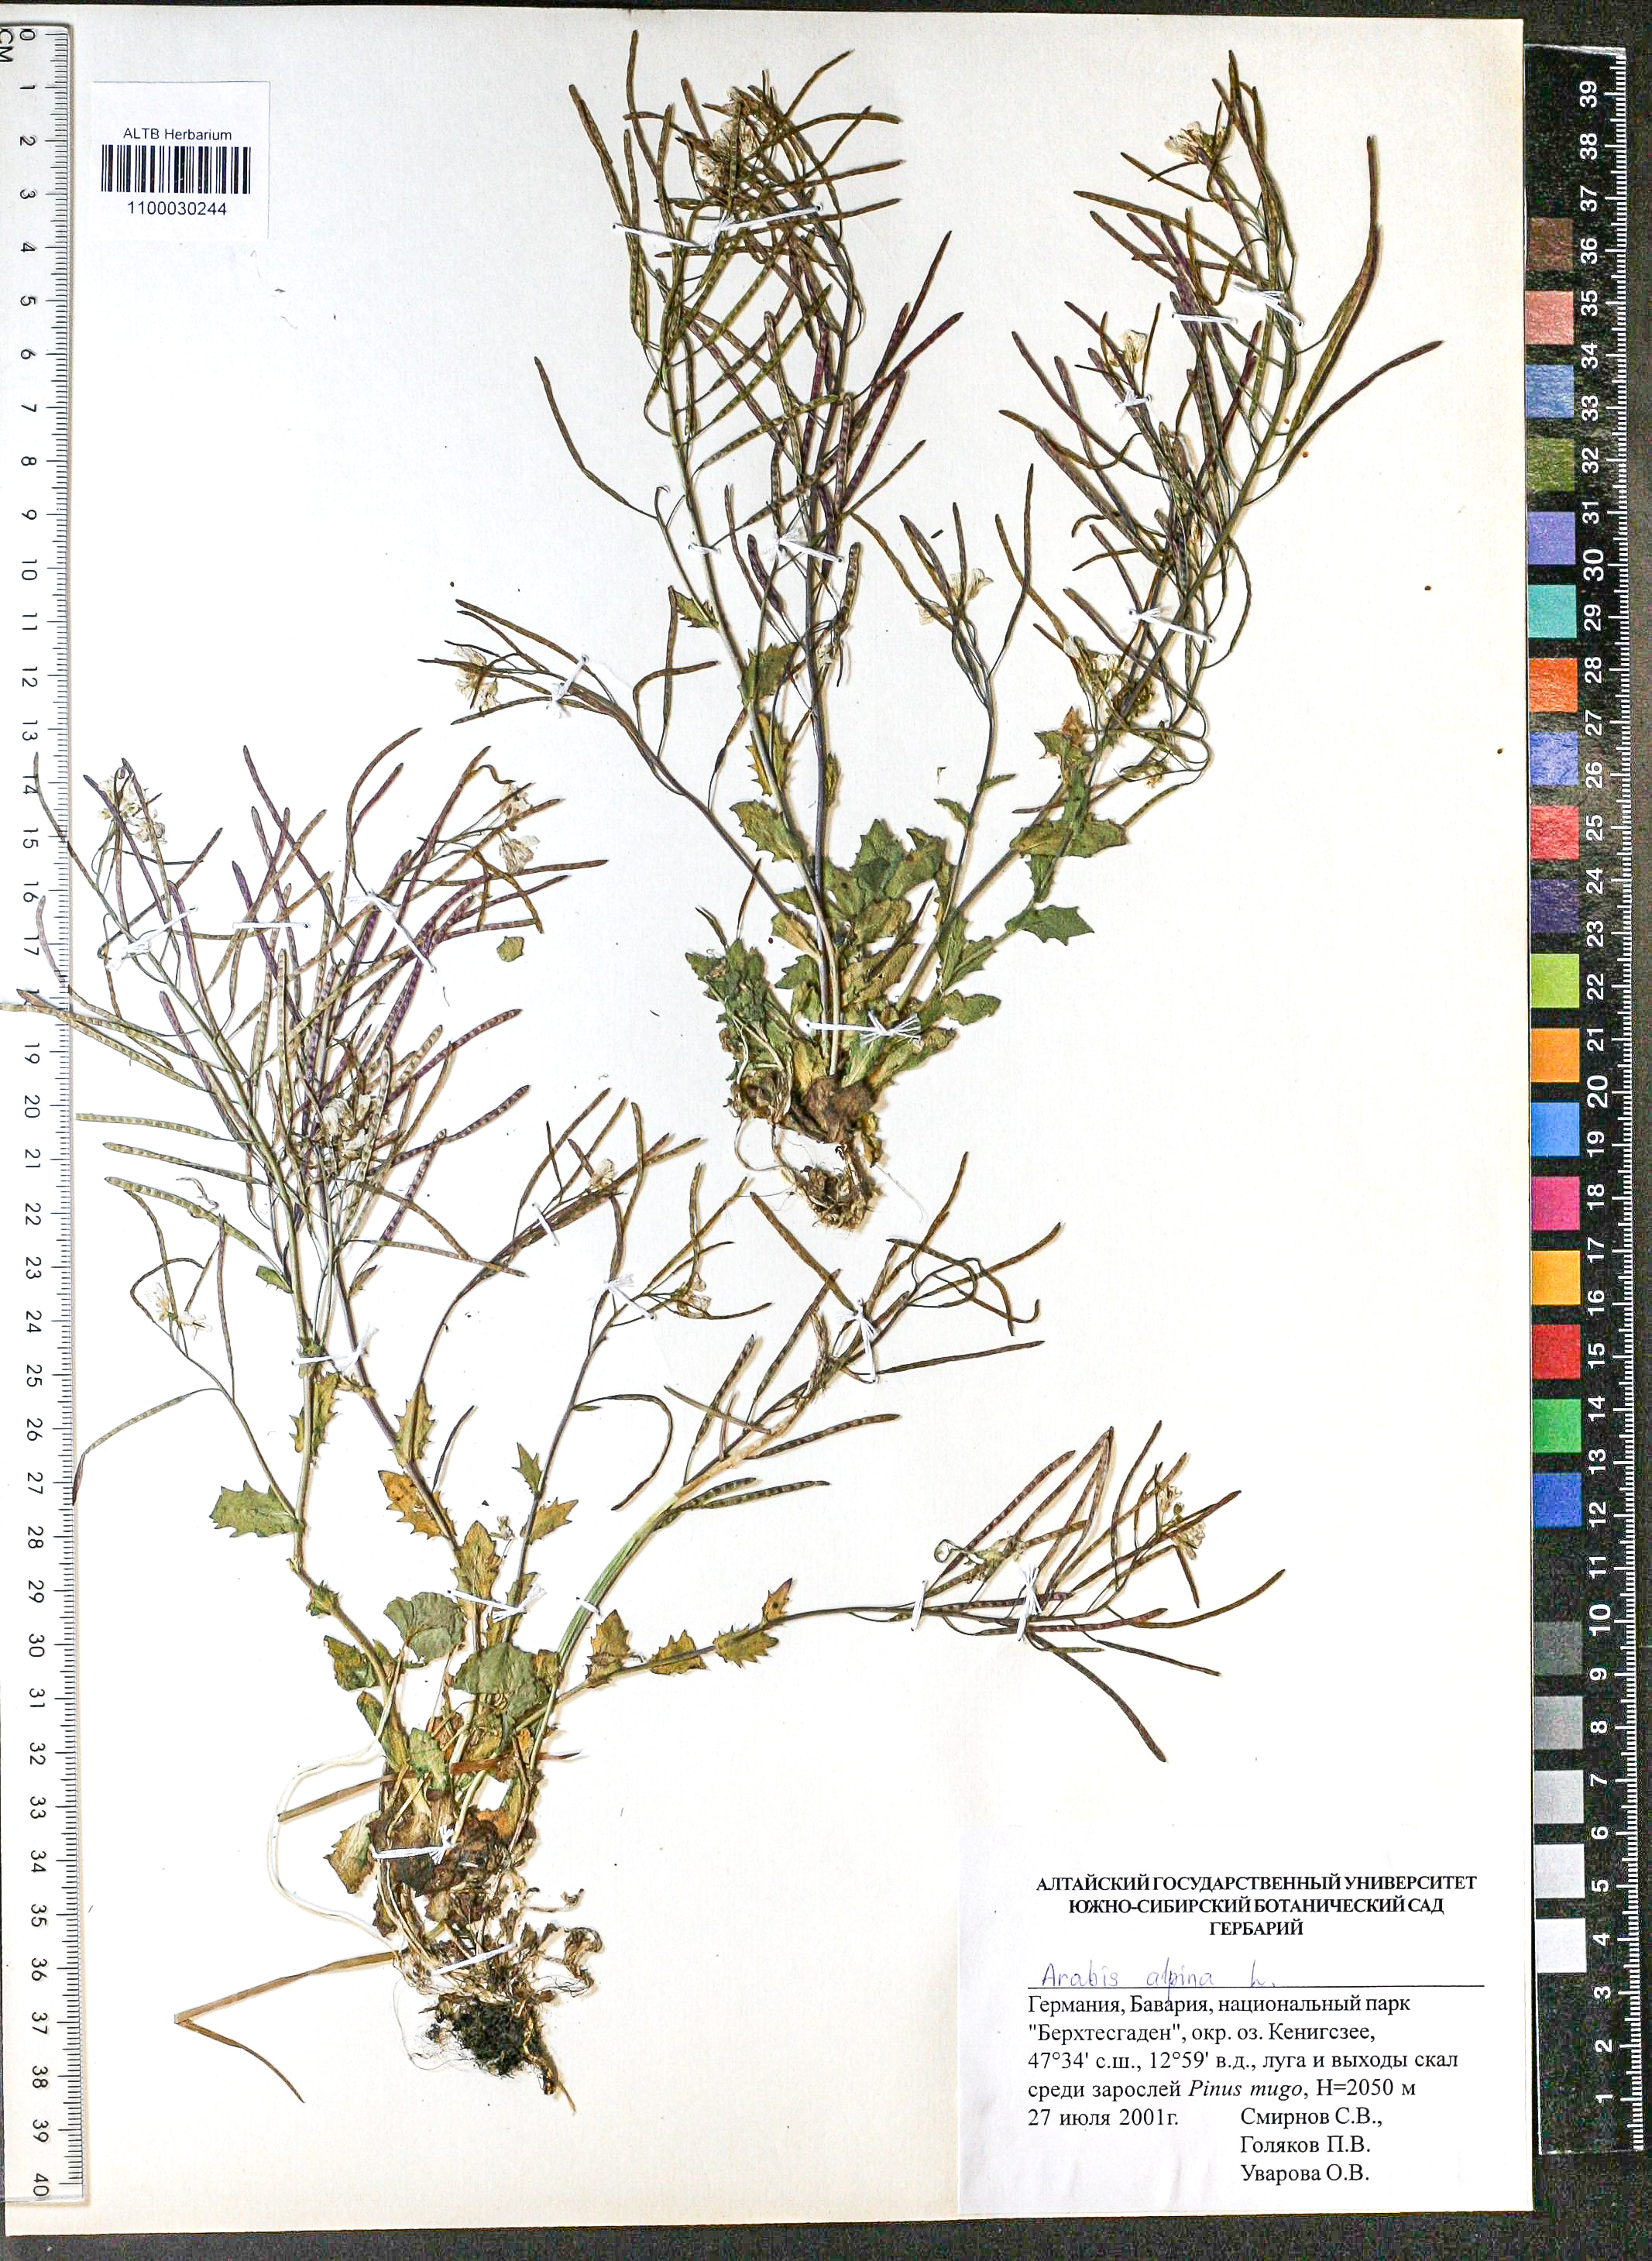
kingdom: Plantae
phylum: Tracheophyta
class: Magnoliopsida
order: Brassicales
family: Brassicaceae
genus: Arabis
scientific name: Arabis alpina
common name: Alpine rock-cress
